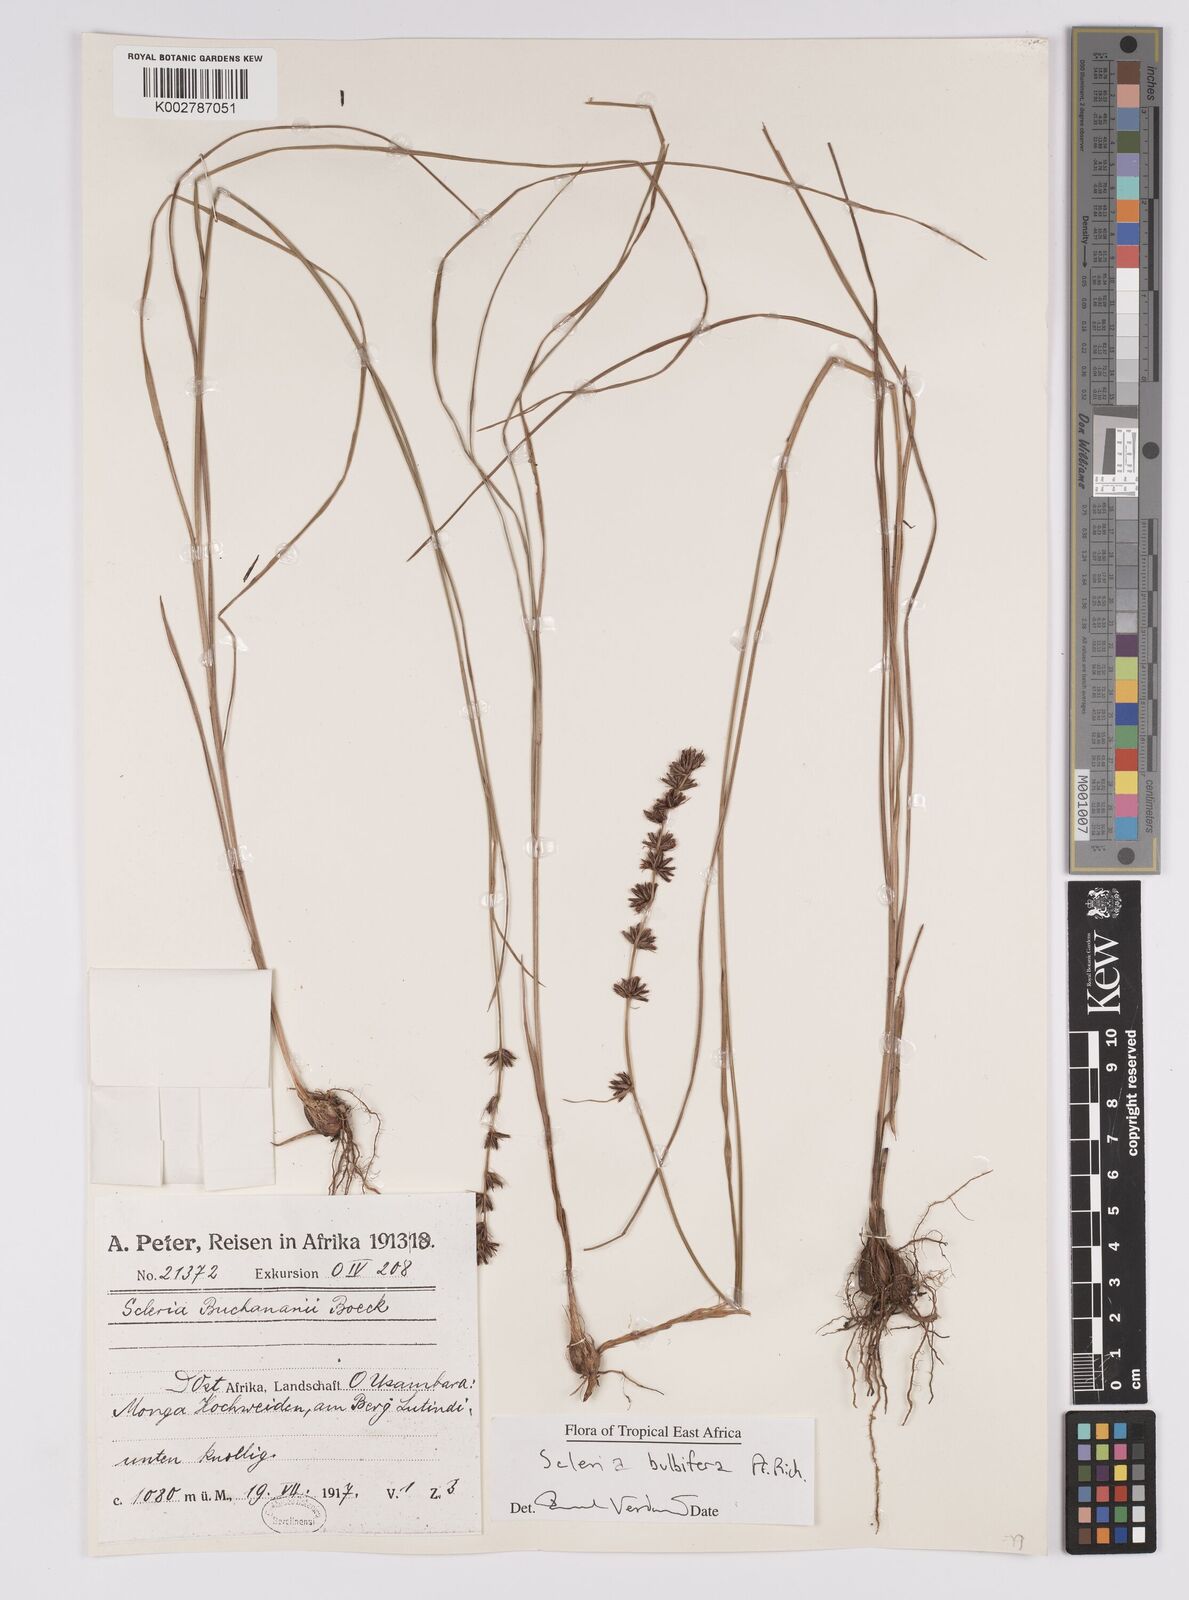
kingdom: Plantae
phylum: Tracheophyta
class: Liliopsida
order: Poales
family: Cyperaceae
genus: Scleria
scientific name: Scleria bulbifera
